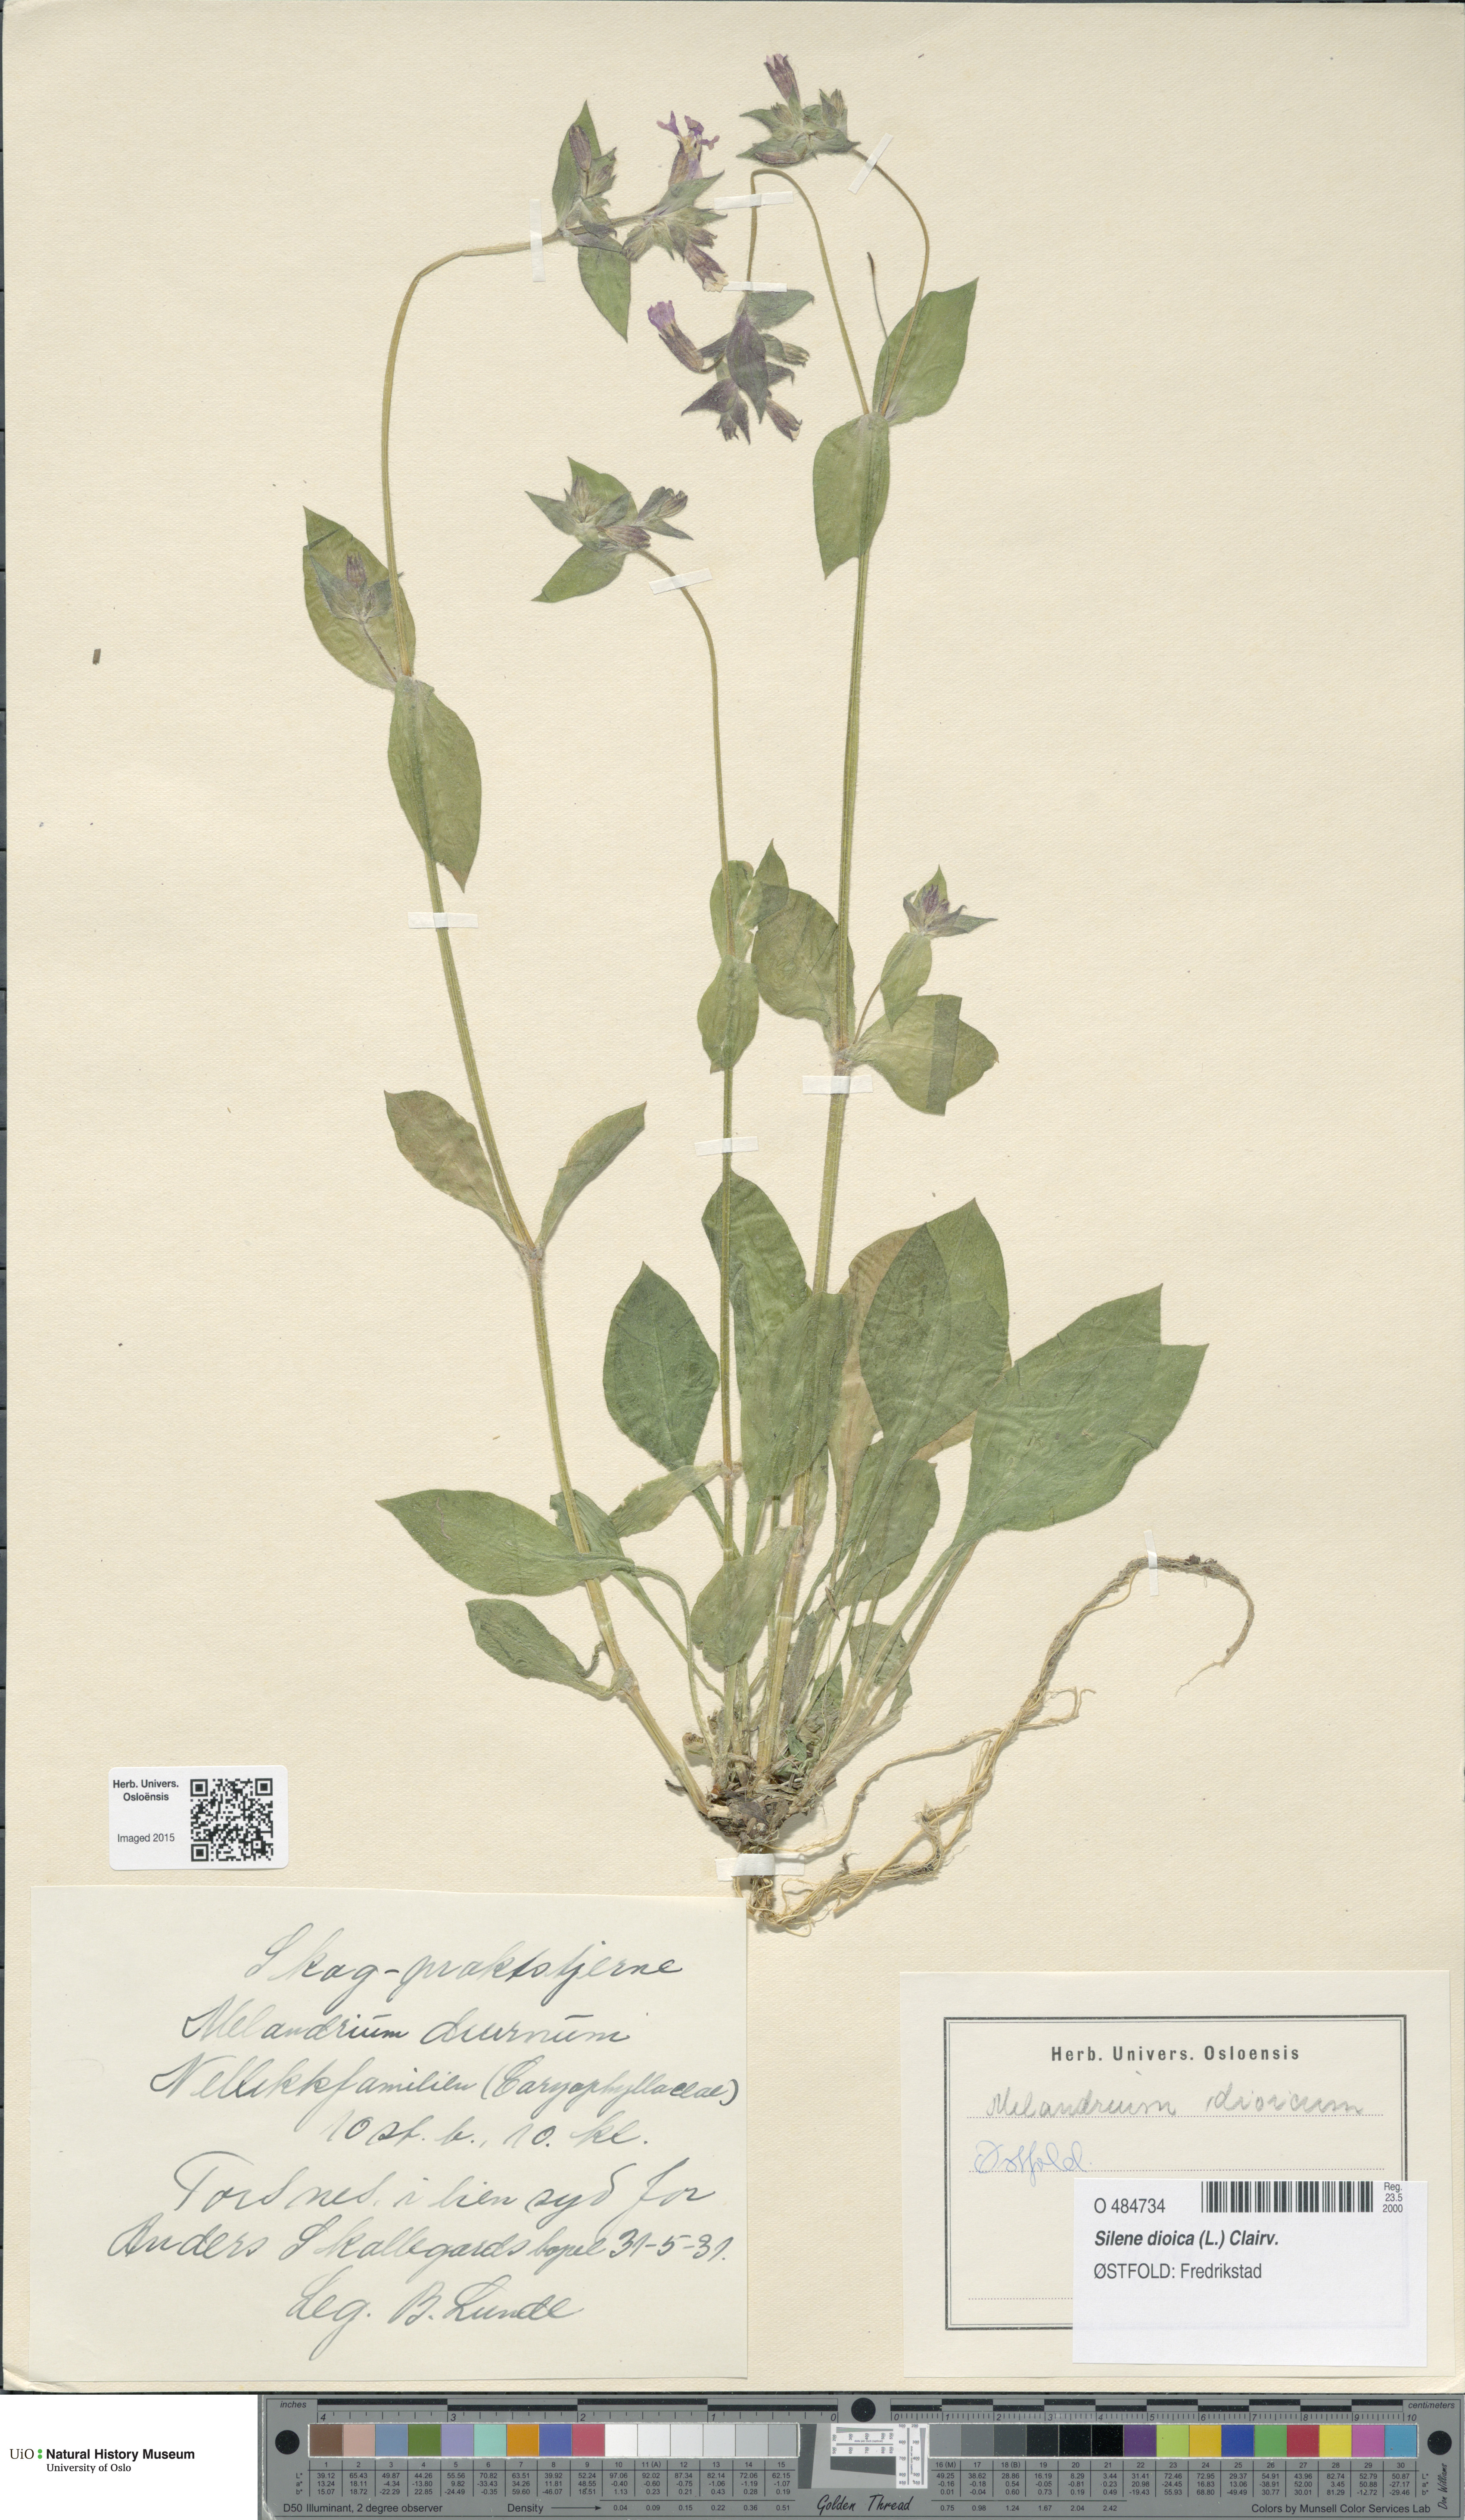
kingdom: Plantae
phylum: Tracheophyta
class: Magnoliopsida
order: Caryophyllales
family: Caryophyllaceae
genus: Silene
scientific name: Silene dioica
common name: Red campion
